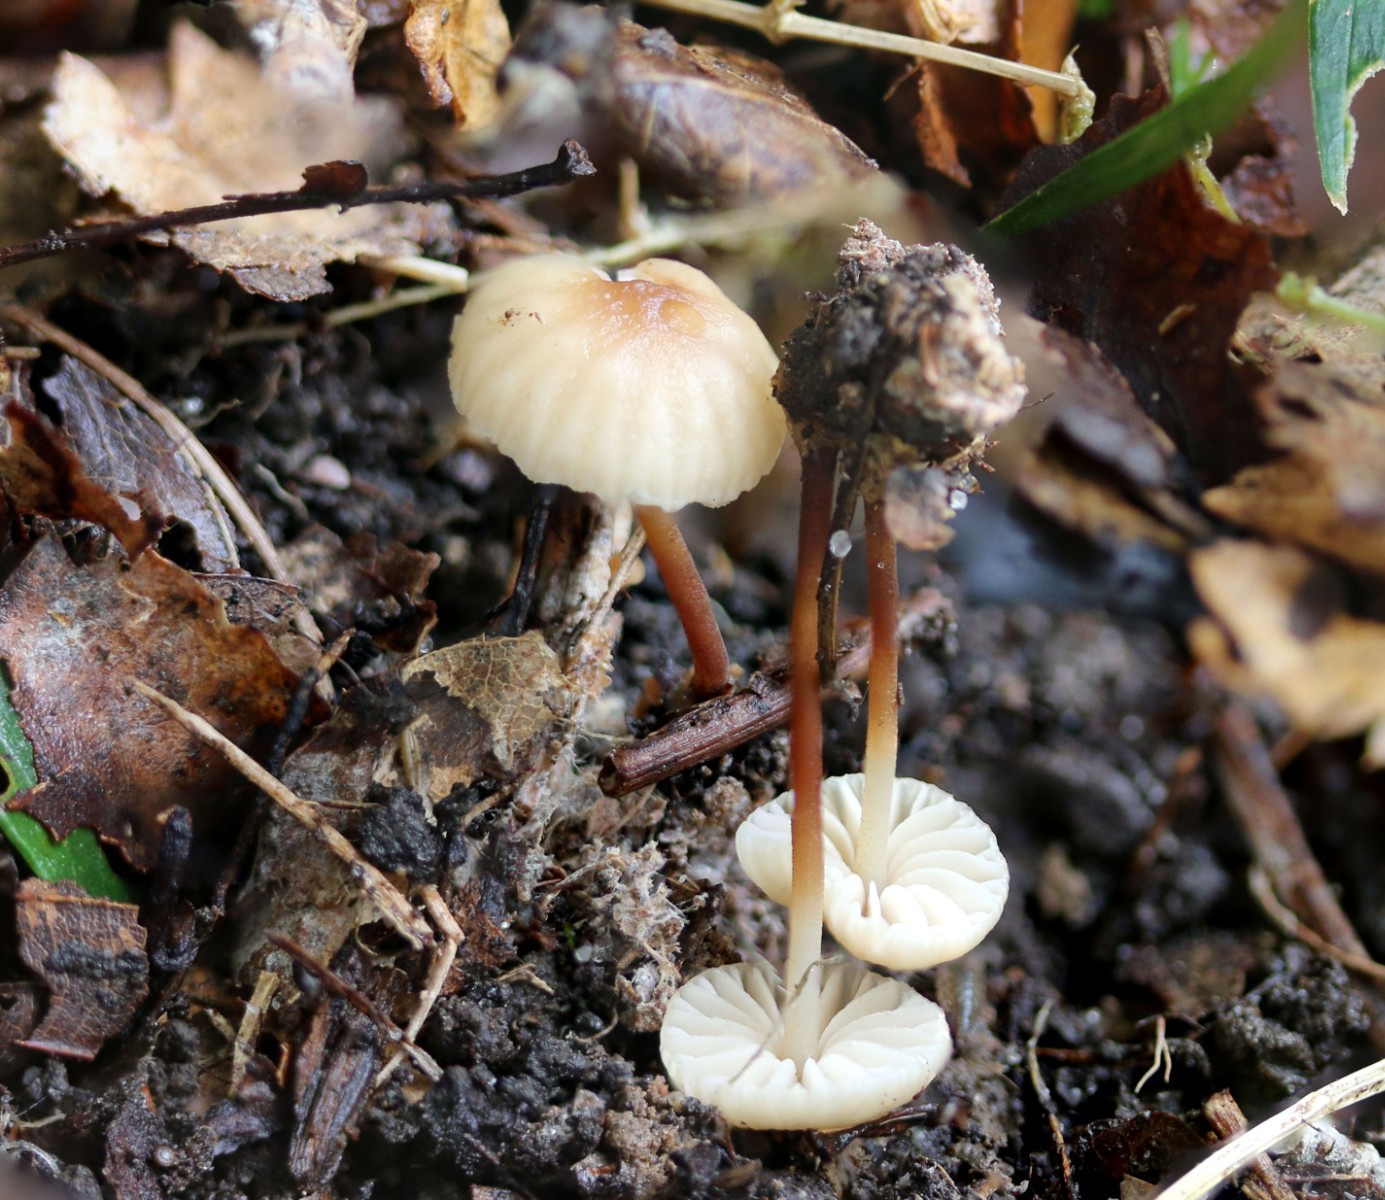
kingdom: Fungi
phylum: Basidiomycota
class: Agaricomycetes
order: Agaricales
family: Marasmiaceae
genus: Marasmius
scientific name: Marasmius torquescens
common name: filtfodet bruskhat
